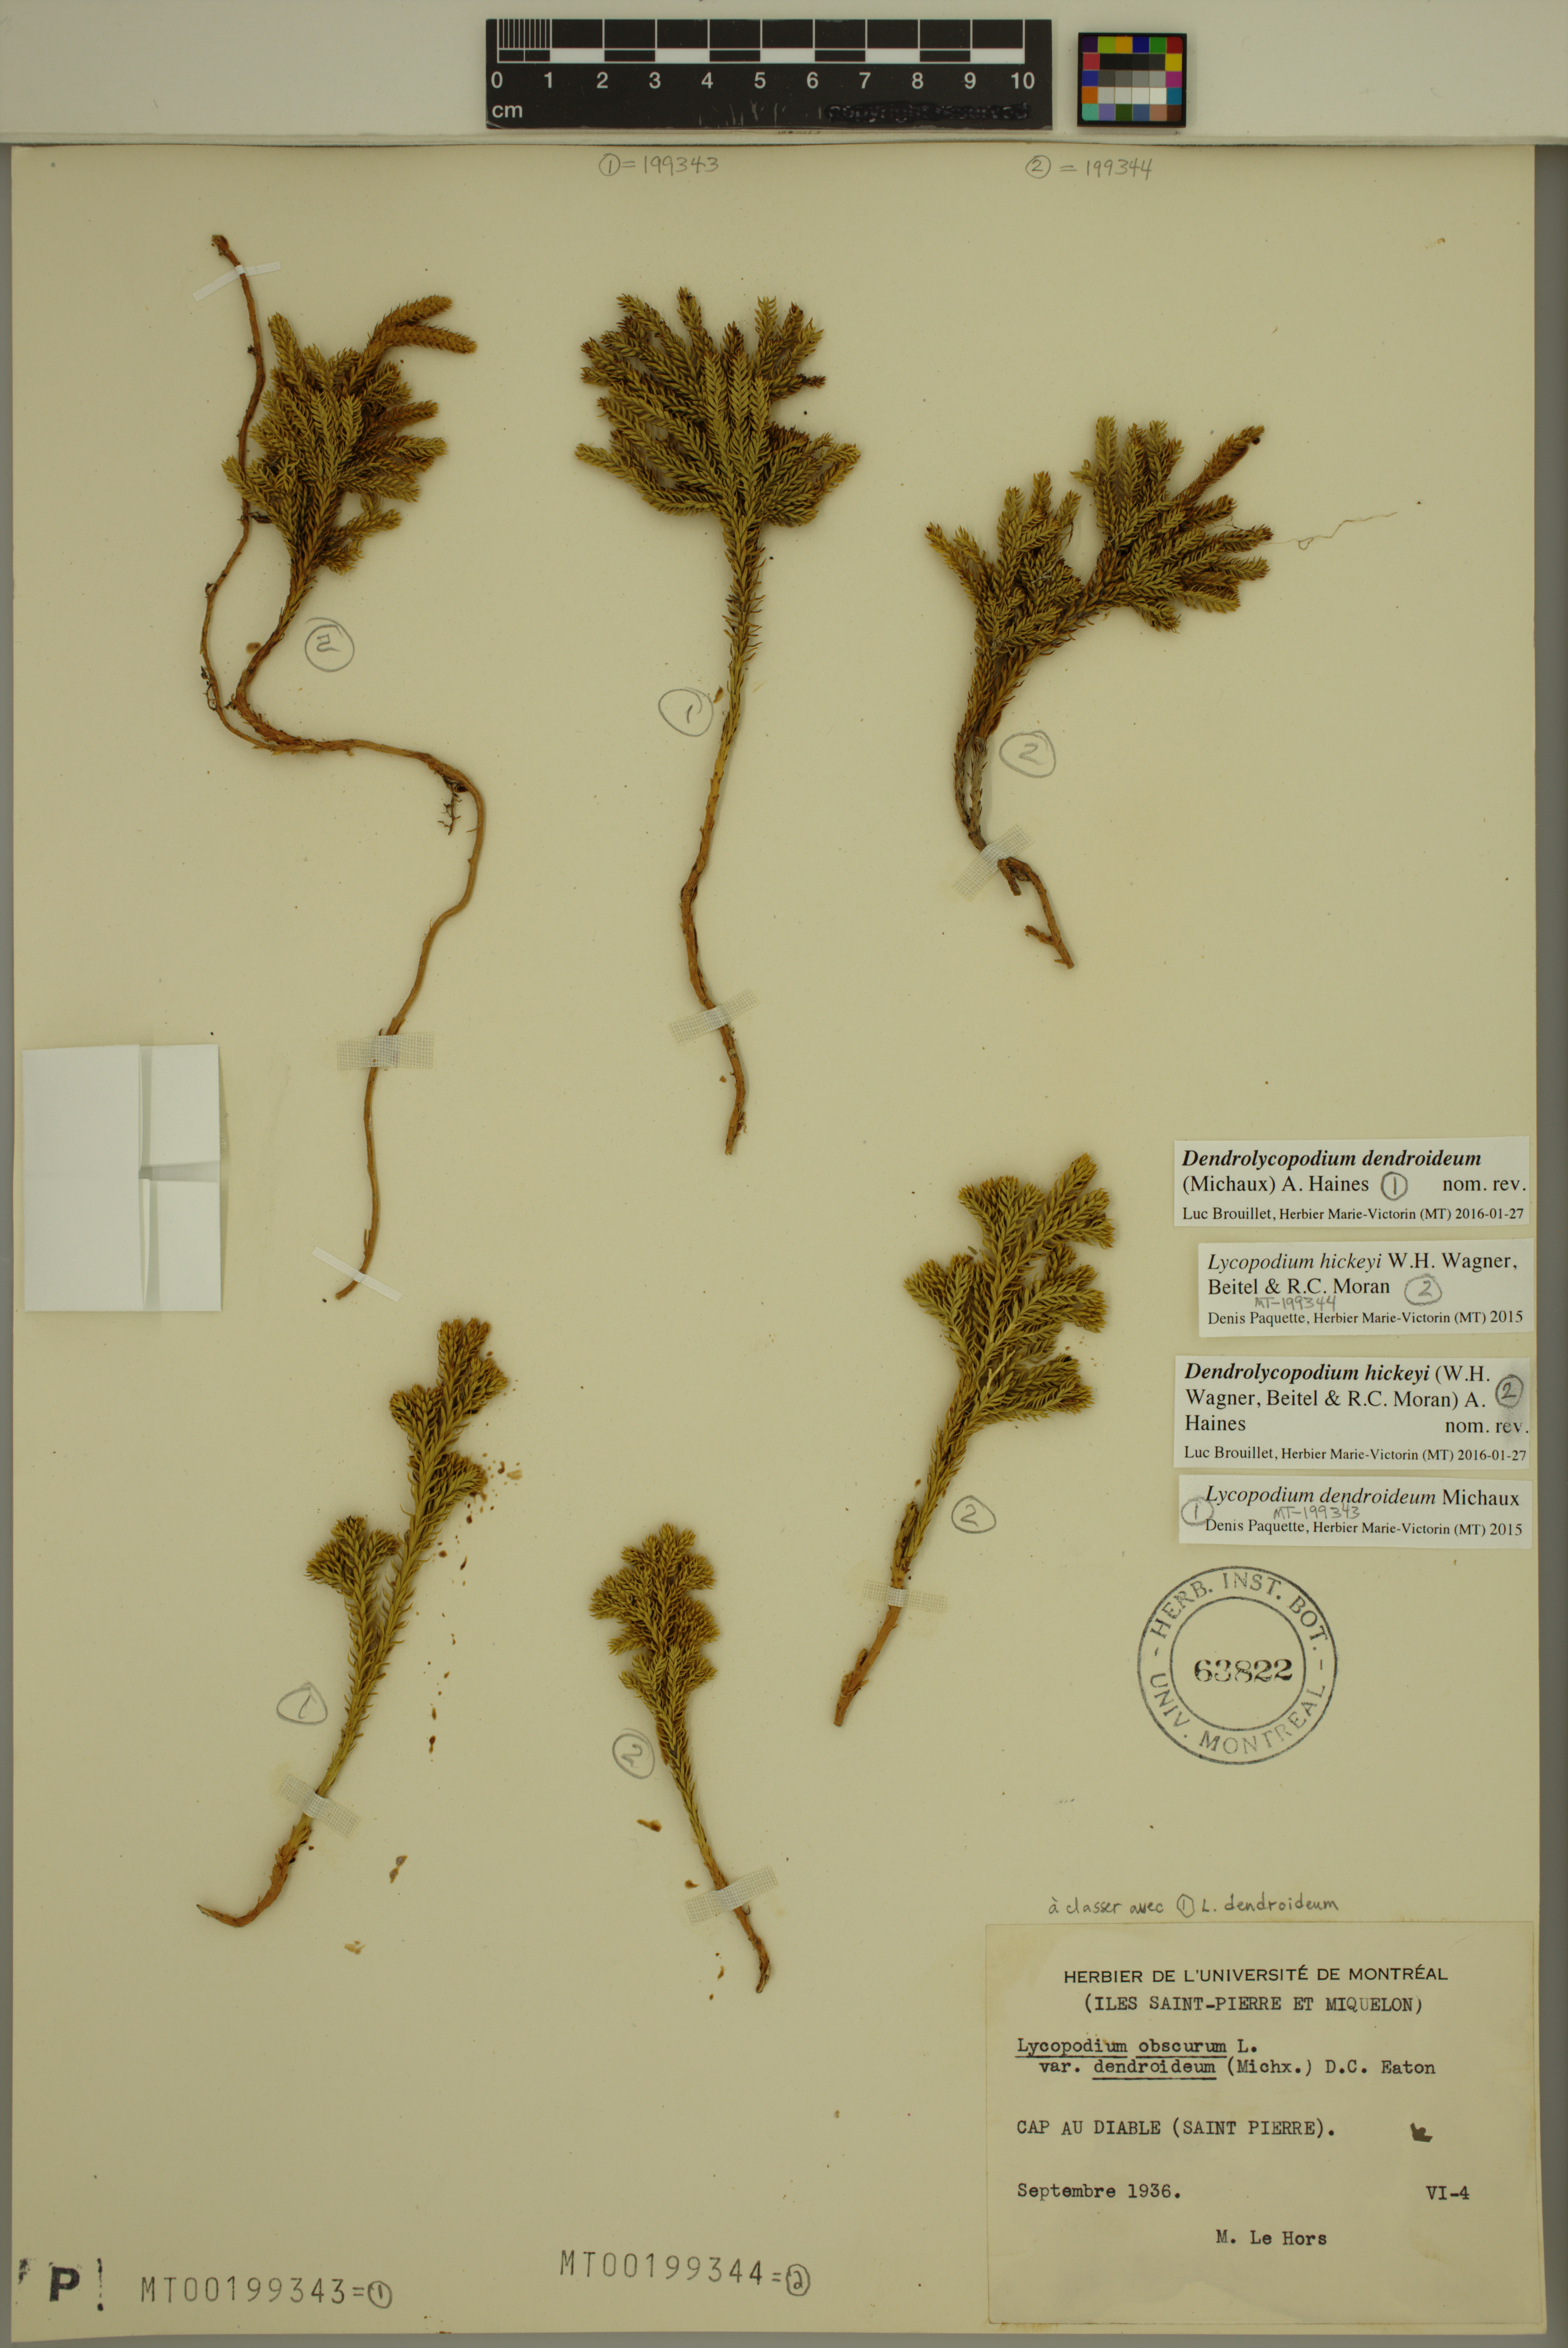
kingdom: Plantae
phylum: Tracheophyta
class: Lycopodiopsida
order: Lycopodiales
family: Lycopodiaceae
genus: Dendrolycopodium
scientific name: Dendrolycopodium hickeyi
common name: Hickey's clubmoss
